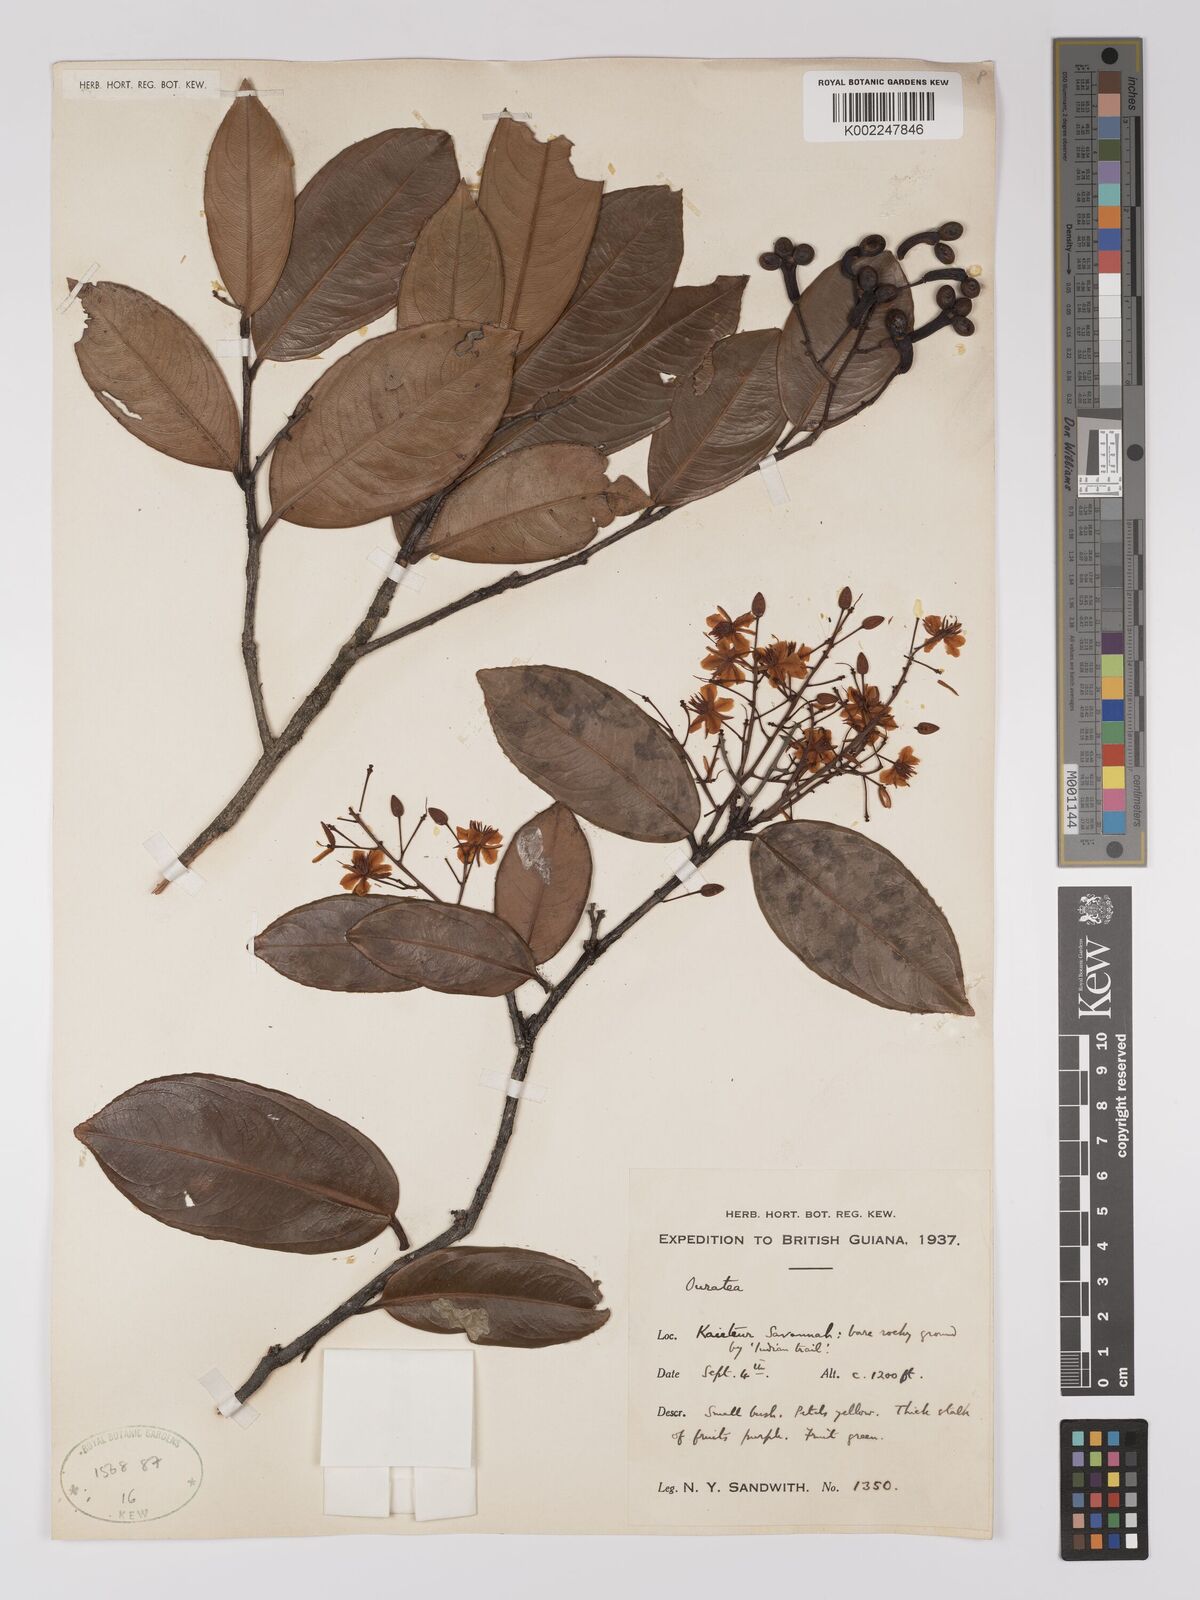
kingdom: Plantae
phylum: Tracheophyta
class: Magnoliopsida
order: Malpighiales
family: Ochnaceae
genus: Ouratea
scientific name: Ouratea
